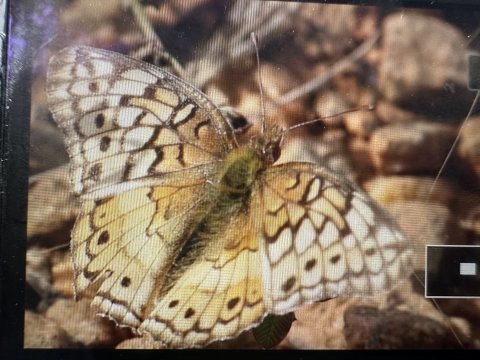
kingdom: Animalia
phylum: Arthropoda
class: Insecta
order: Lepidoptera
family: Nymphalidae
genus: Euptoieta
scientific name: Euptoieta claudia
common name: Variegated Fritillary
